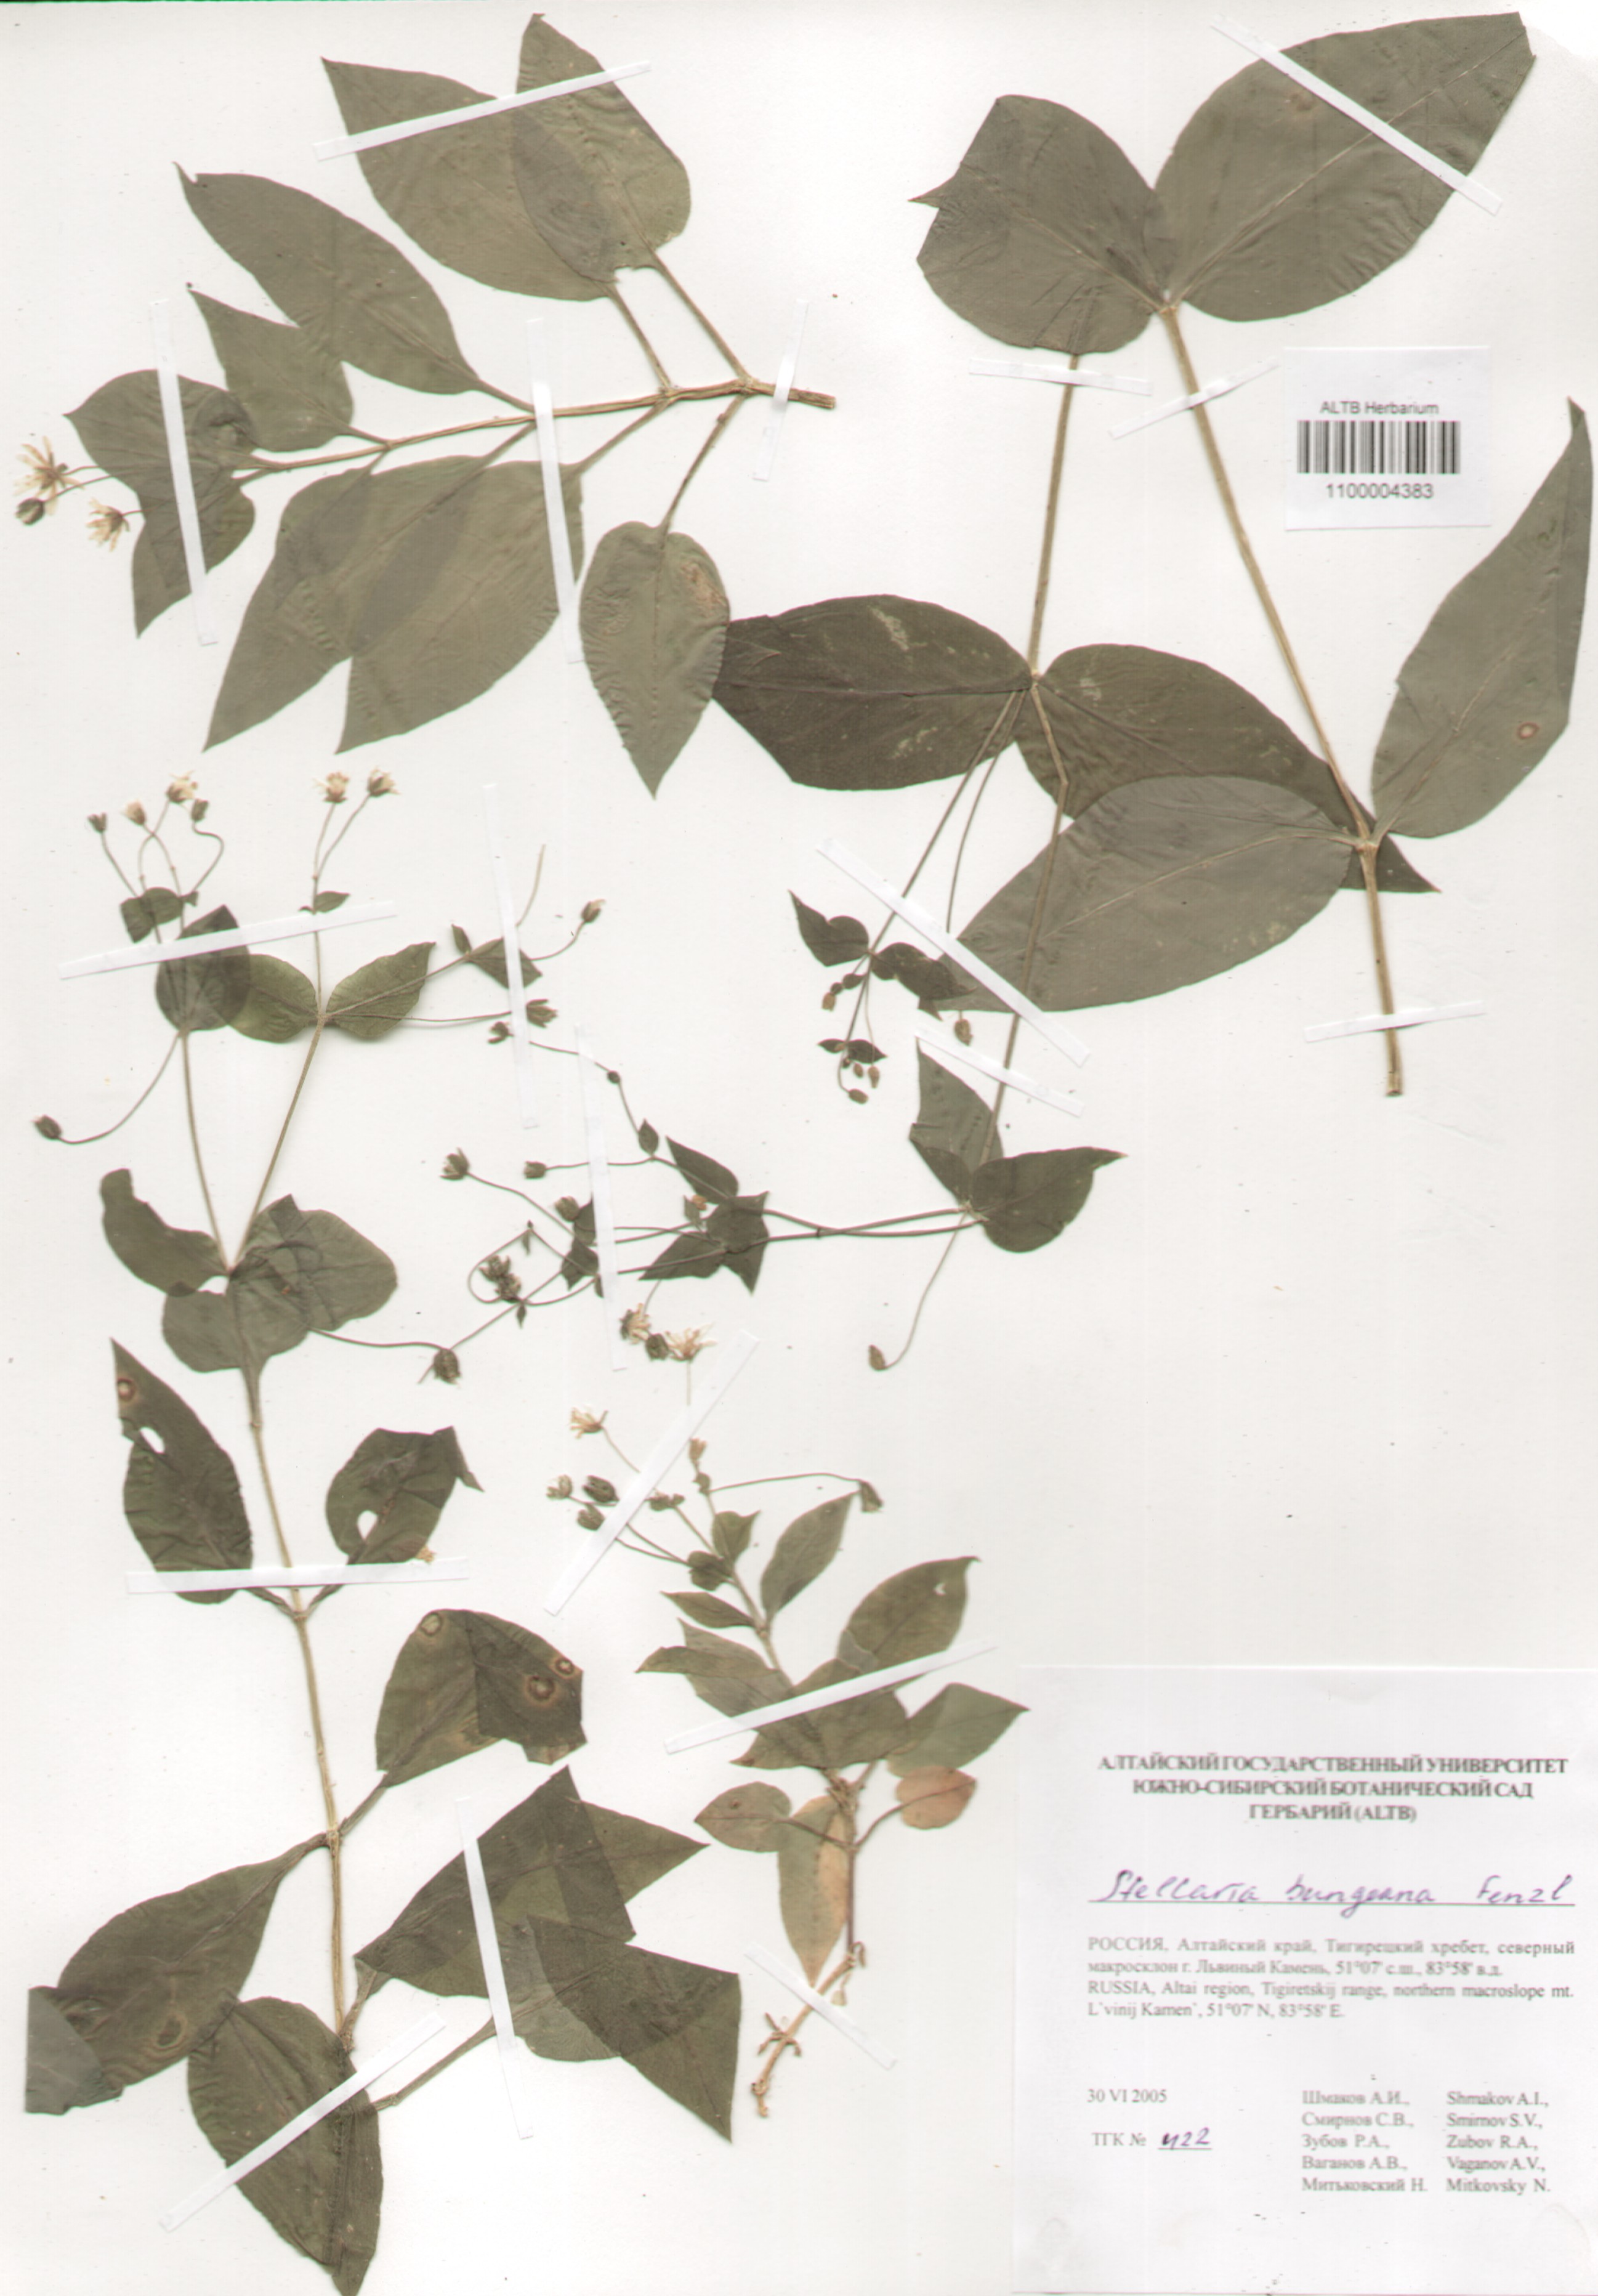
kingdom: Plantae
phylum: Tracheophyta
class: Magnoliopsida
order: Caryophyllales
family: Caryophyllaceae
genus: Stellaria
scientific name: Stellaria bungeana
